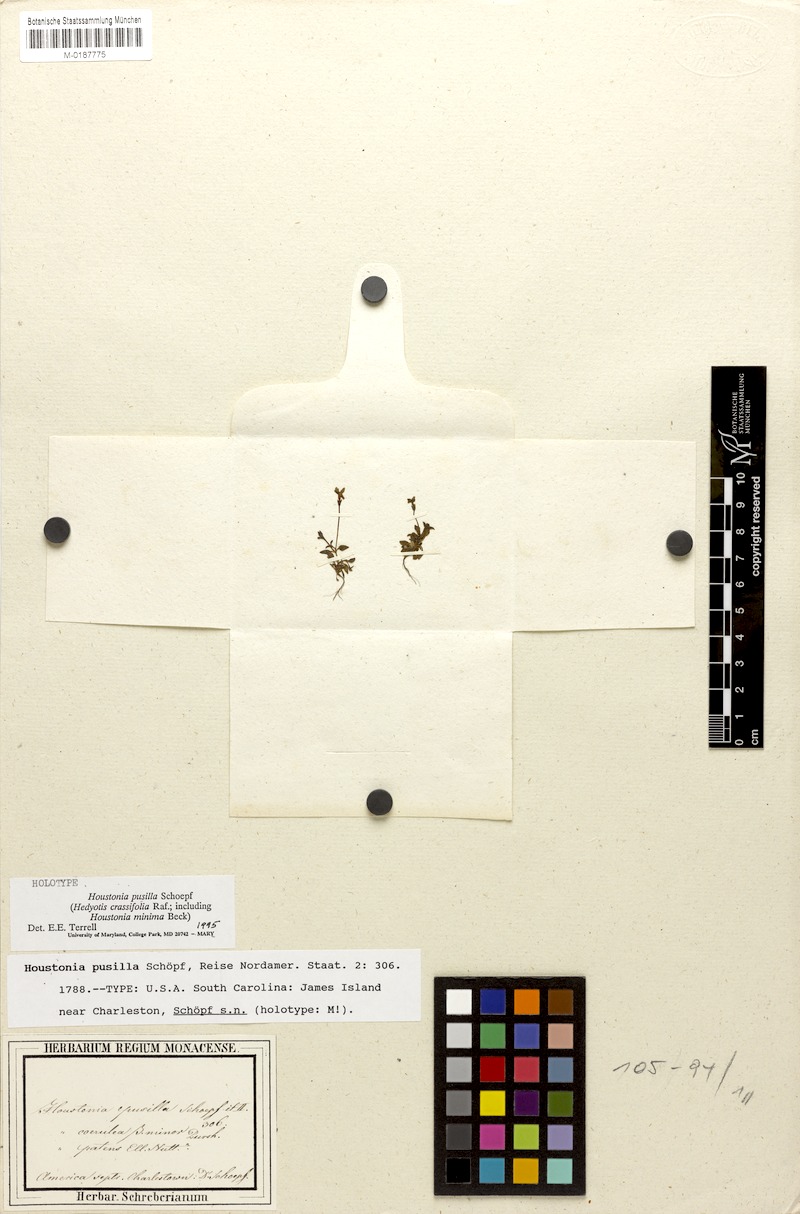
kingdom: Plantae
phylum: Tracheophyta
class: Magnoliopsida
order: Gentianales
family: Rubiaceae
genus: Houstonia
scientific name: Houstonia pusilla
